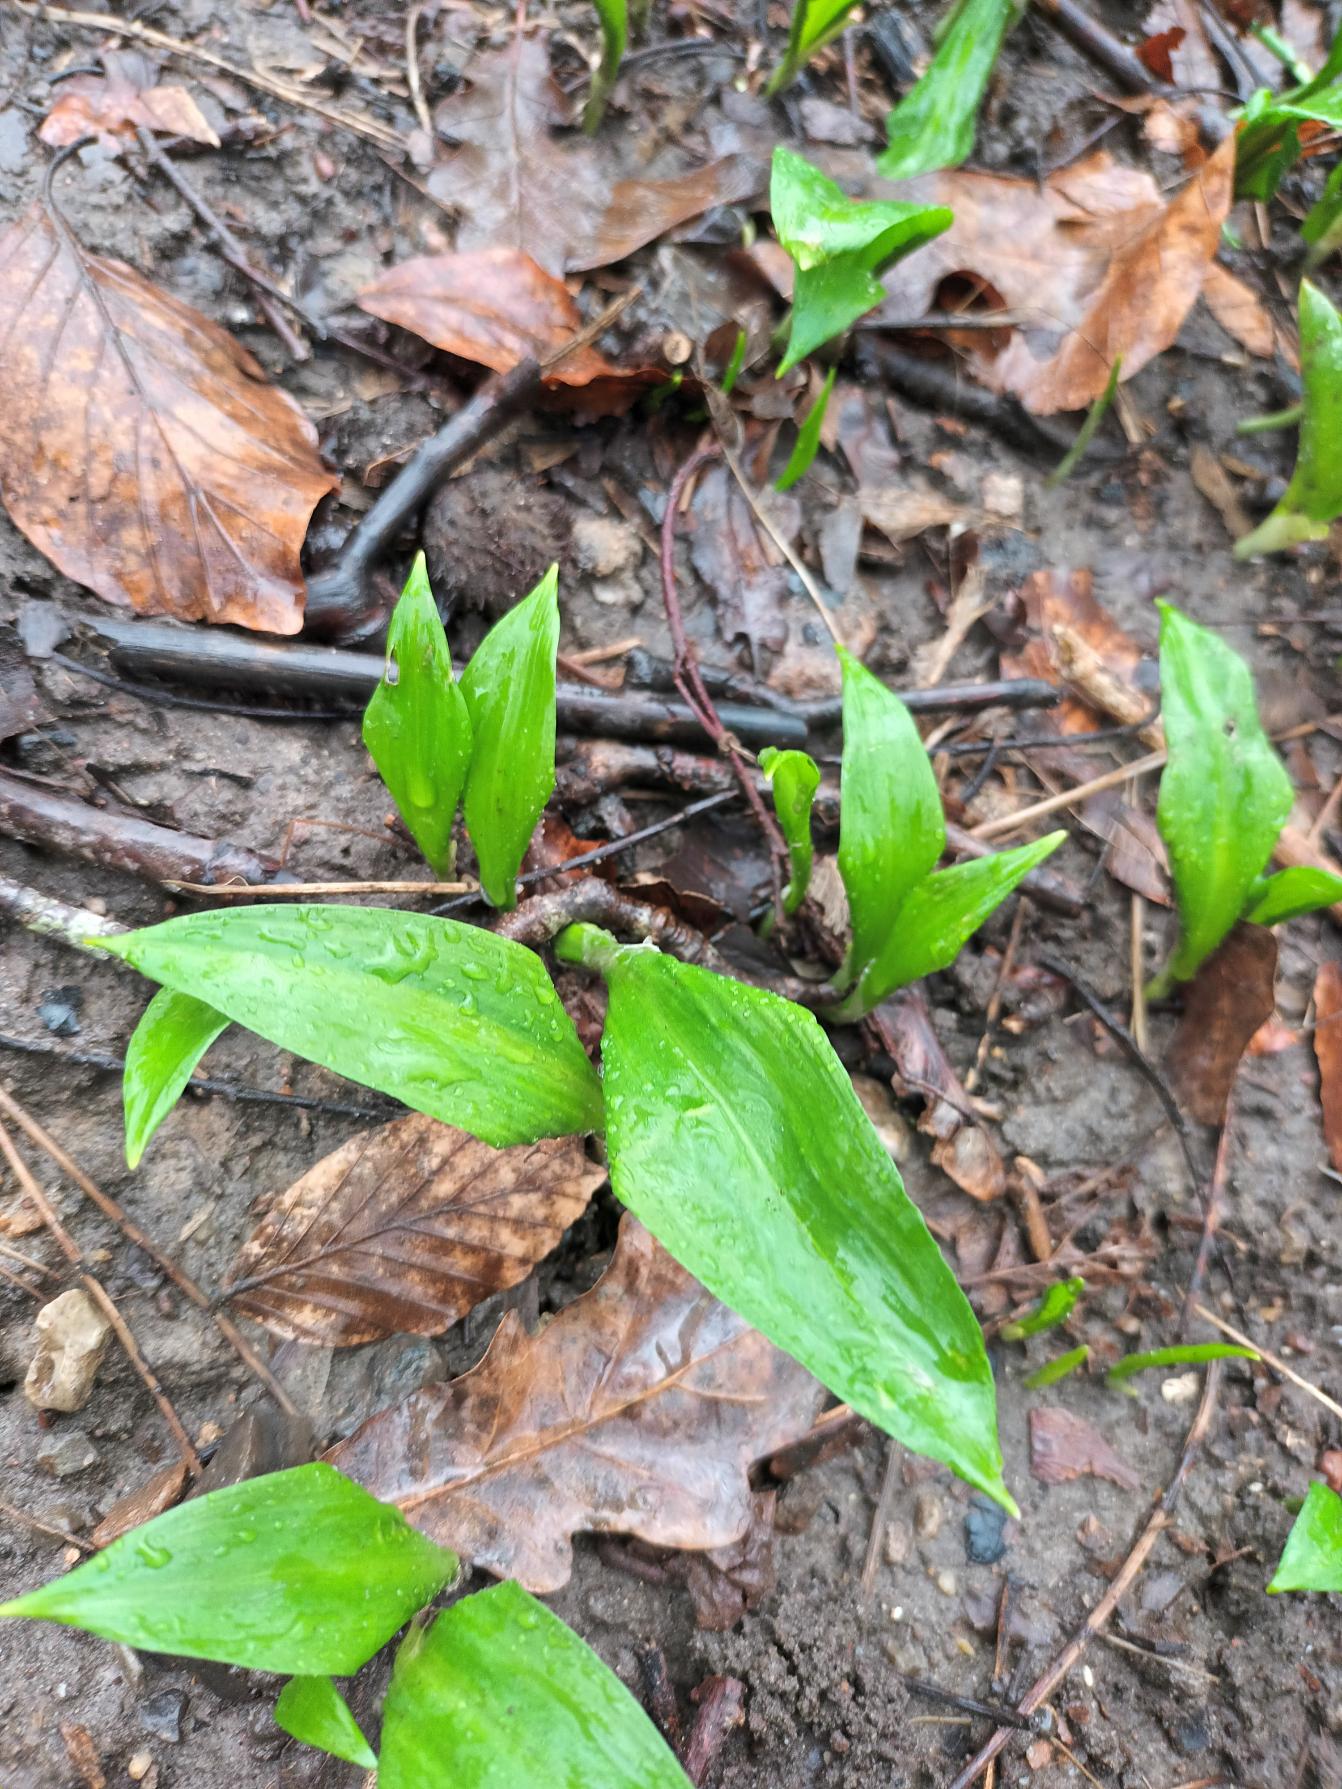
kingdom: Plantae
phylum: Tracheophyta
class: Liliopsida
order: Asparagales
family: Amaryllidaceae
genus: Allium
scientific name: Allium ursinum
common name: Rams-løg
